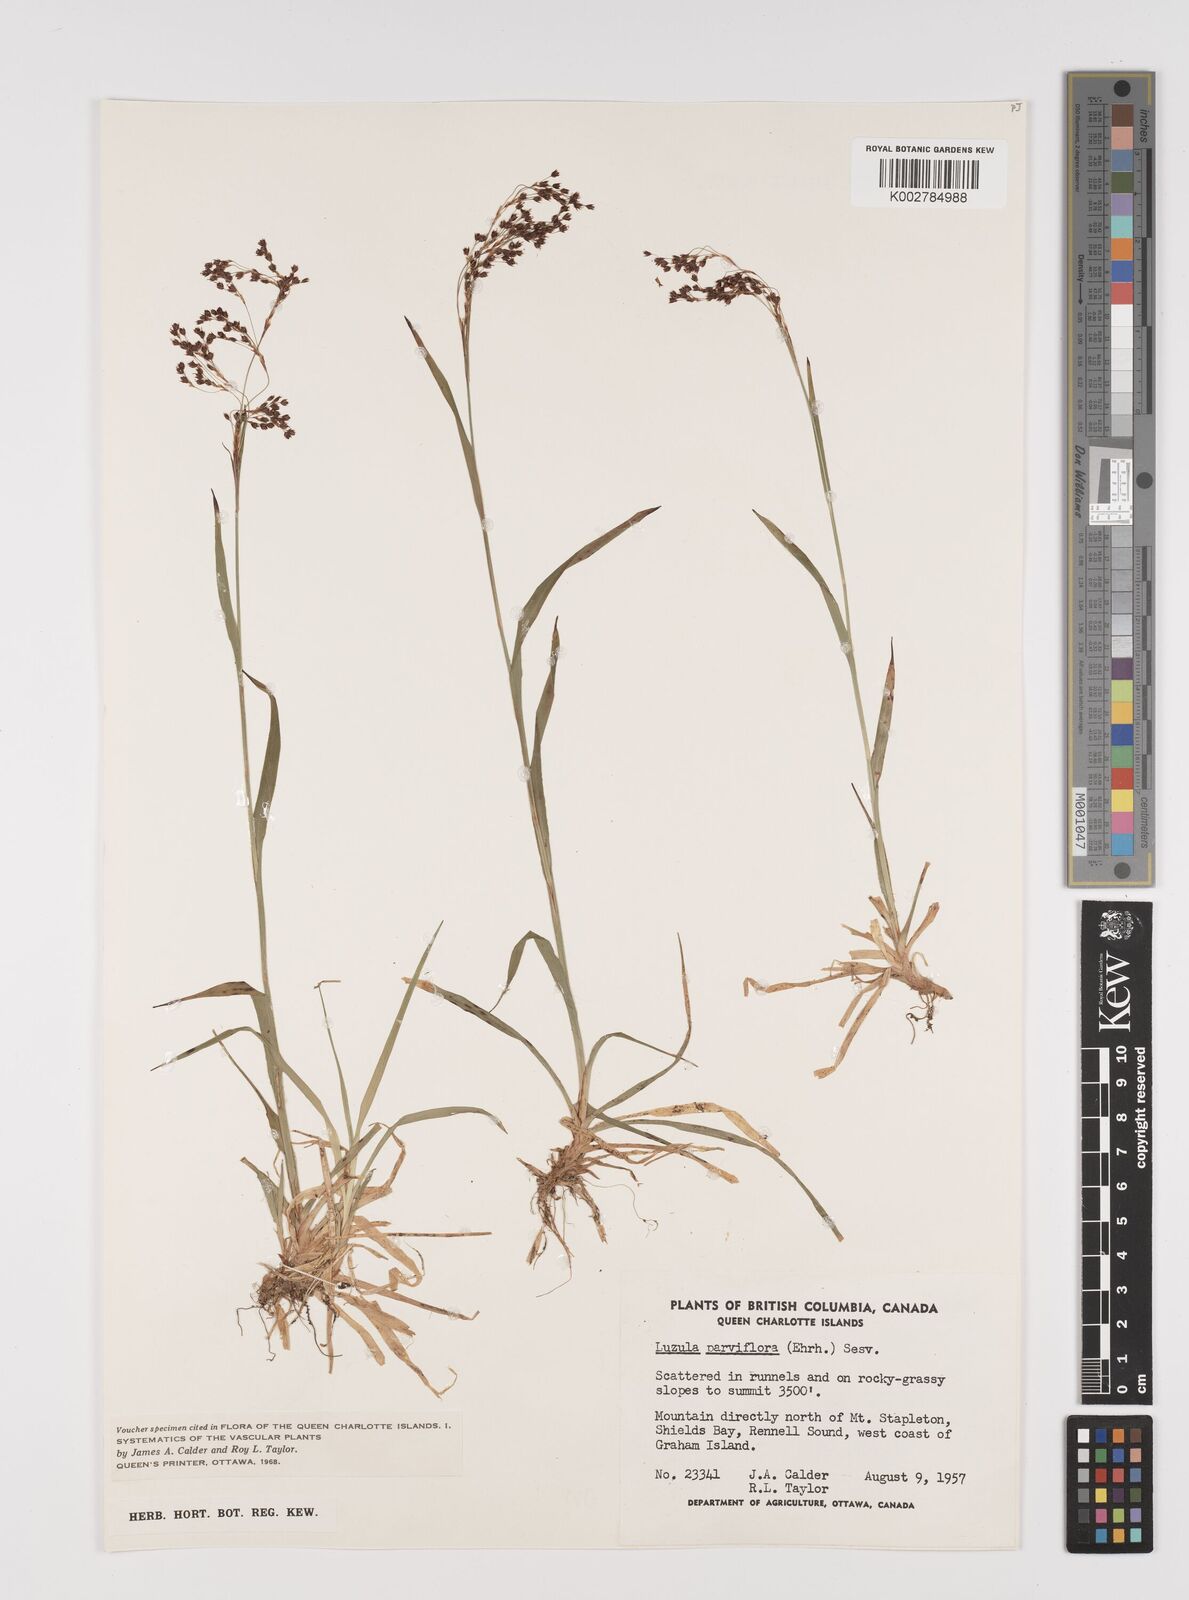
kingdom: Plantae
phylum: Tracheophyta
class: Liliopsida
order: Poales
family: Juncaceae
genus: Luzula
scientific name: Luzula parviflora
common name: Millet woodrush
